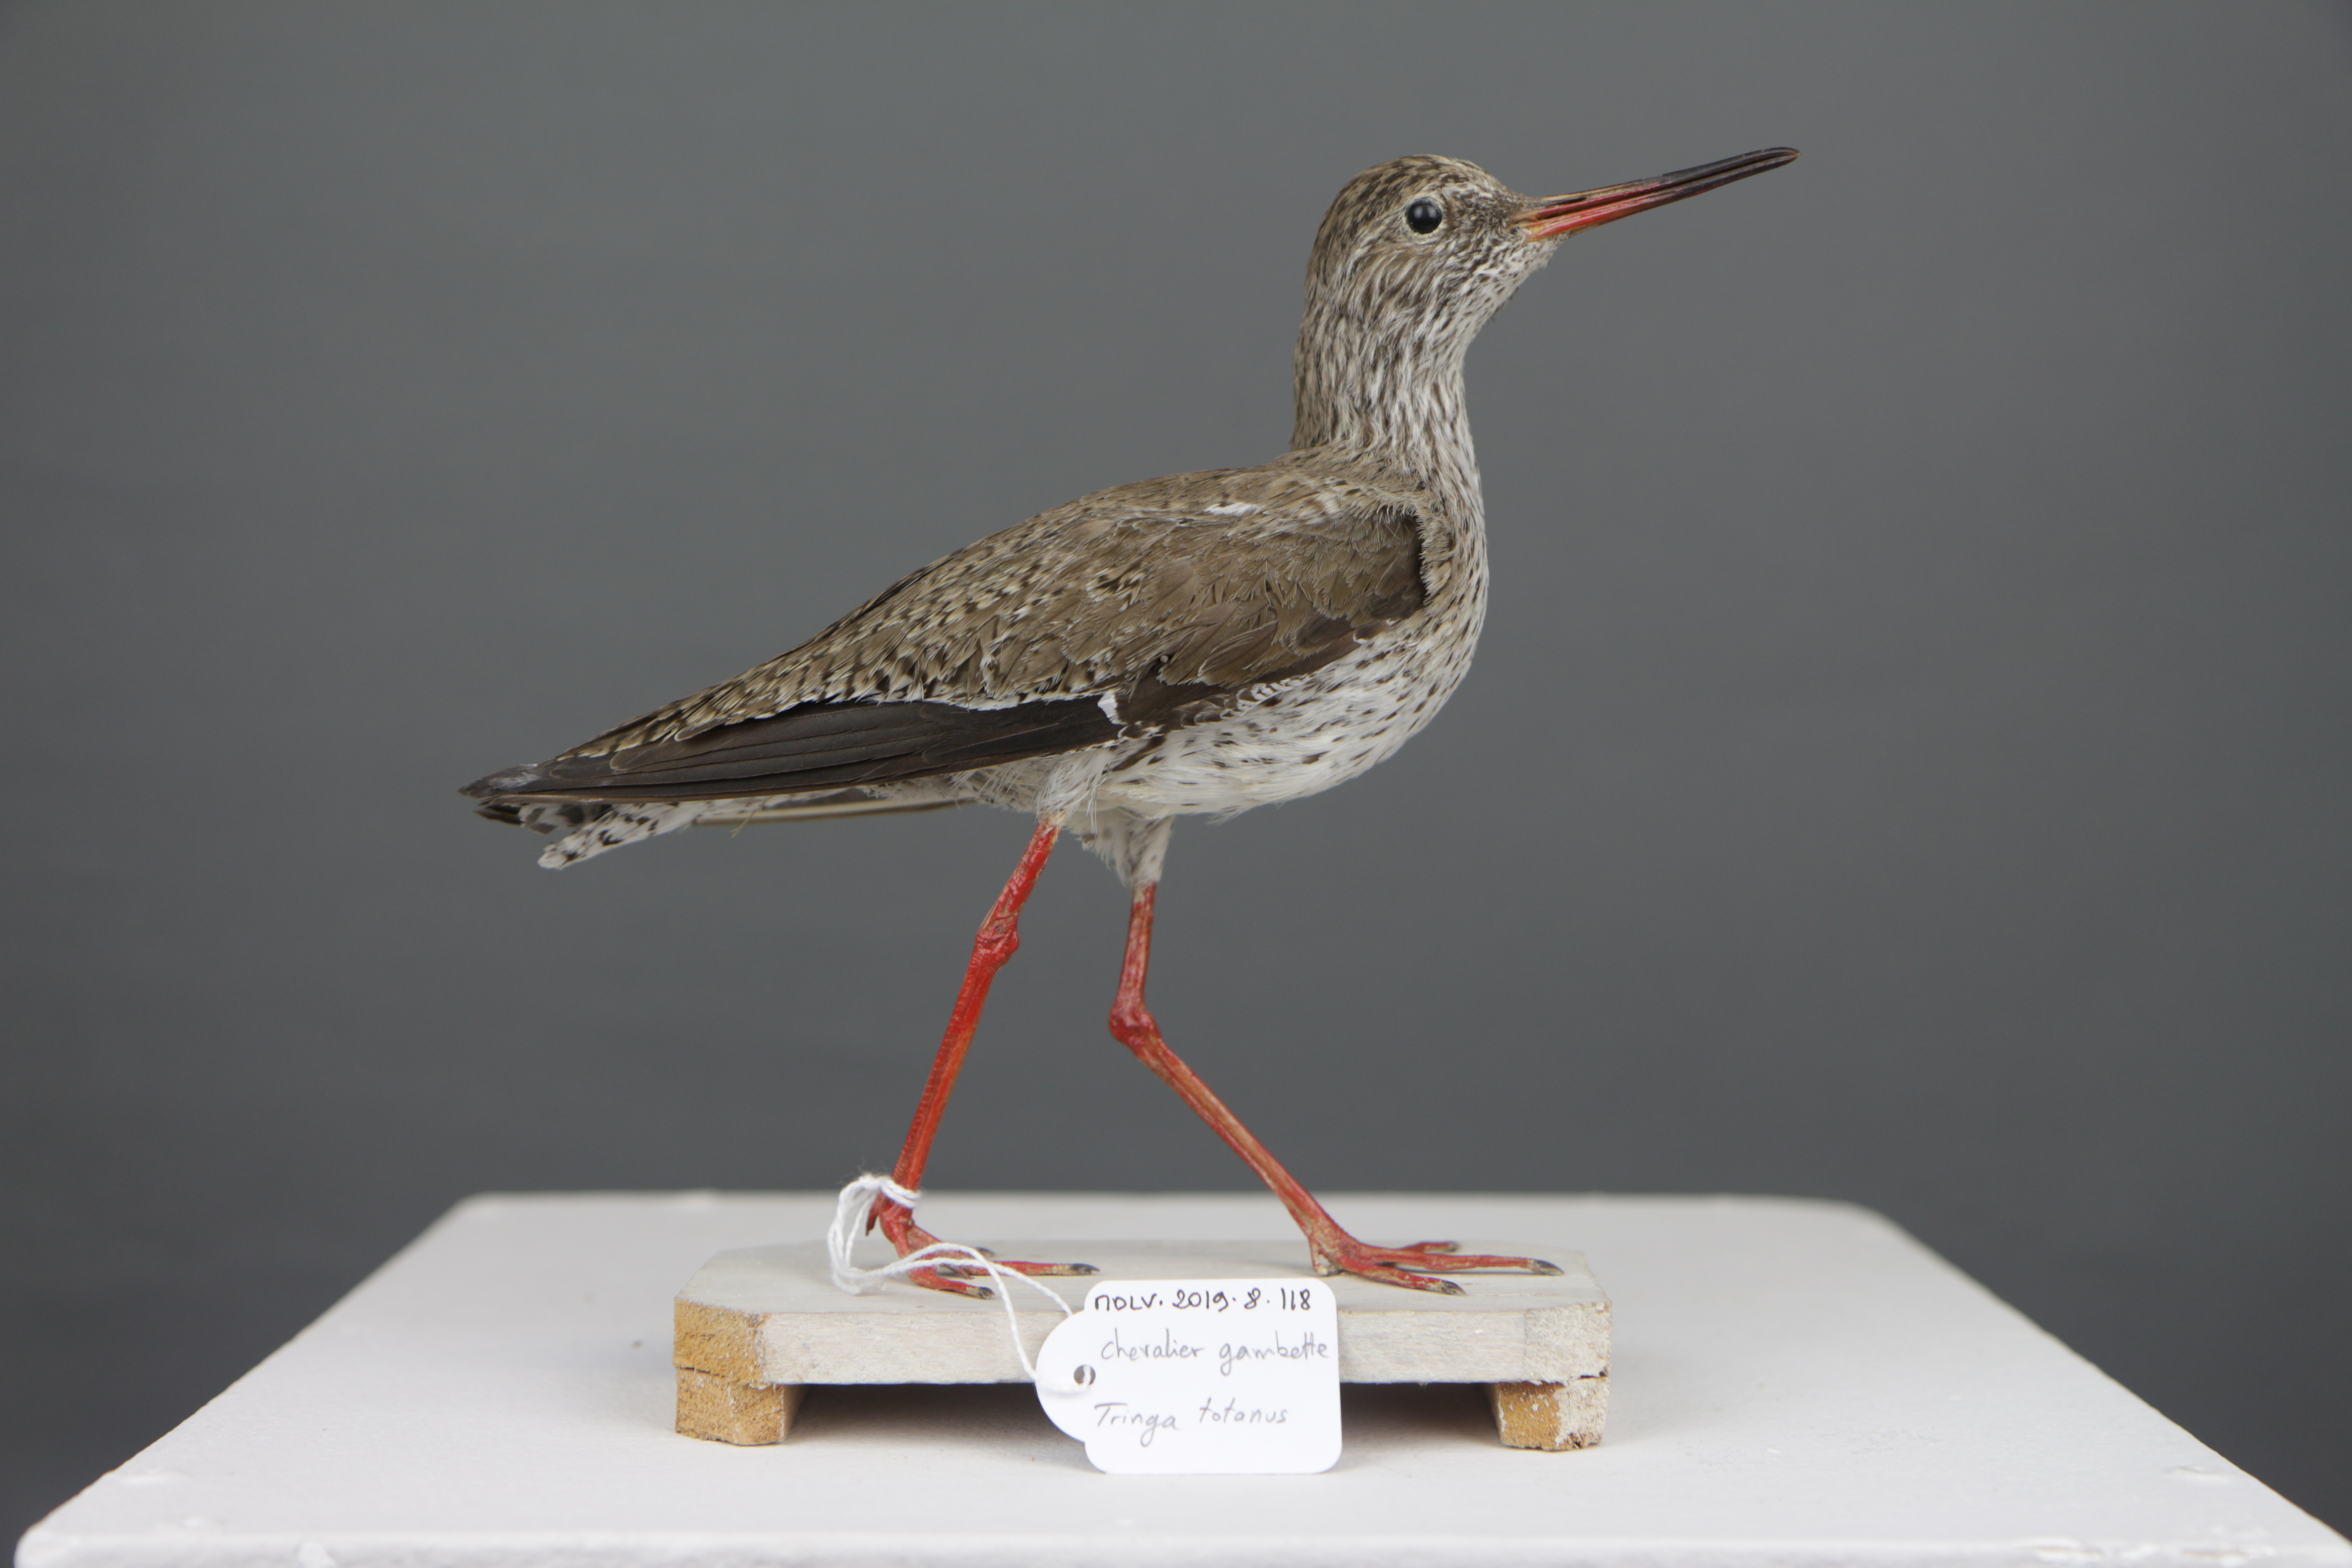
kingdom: Animalia
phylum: Chordata
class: Aves
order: Charadriiformes
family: Scolopacidae
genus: Tringa
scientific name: Tringa totanus
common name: Common redshank
